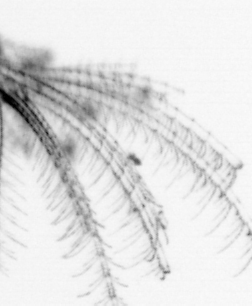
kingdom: Animalia
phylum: Arthropoda
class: Maxillopoda
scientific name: Maxillopoda
